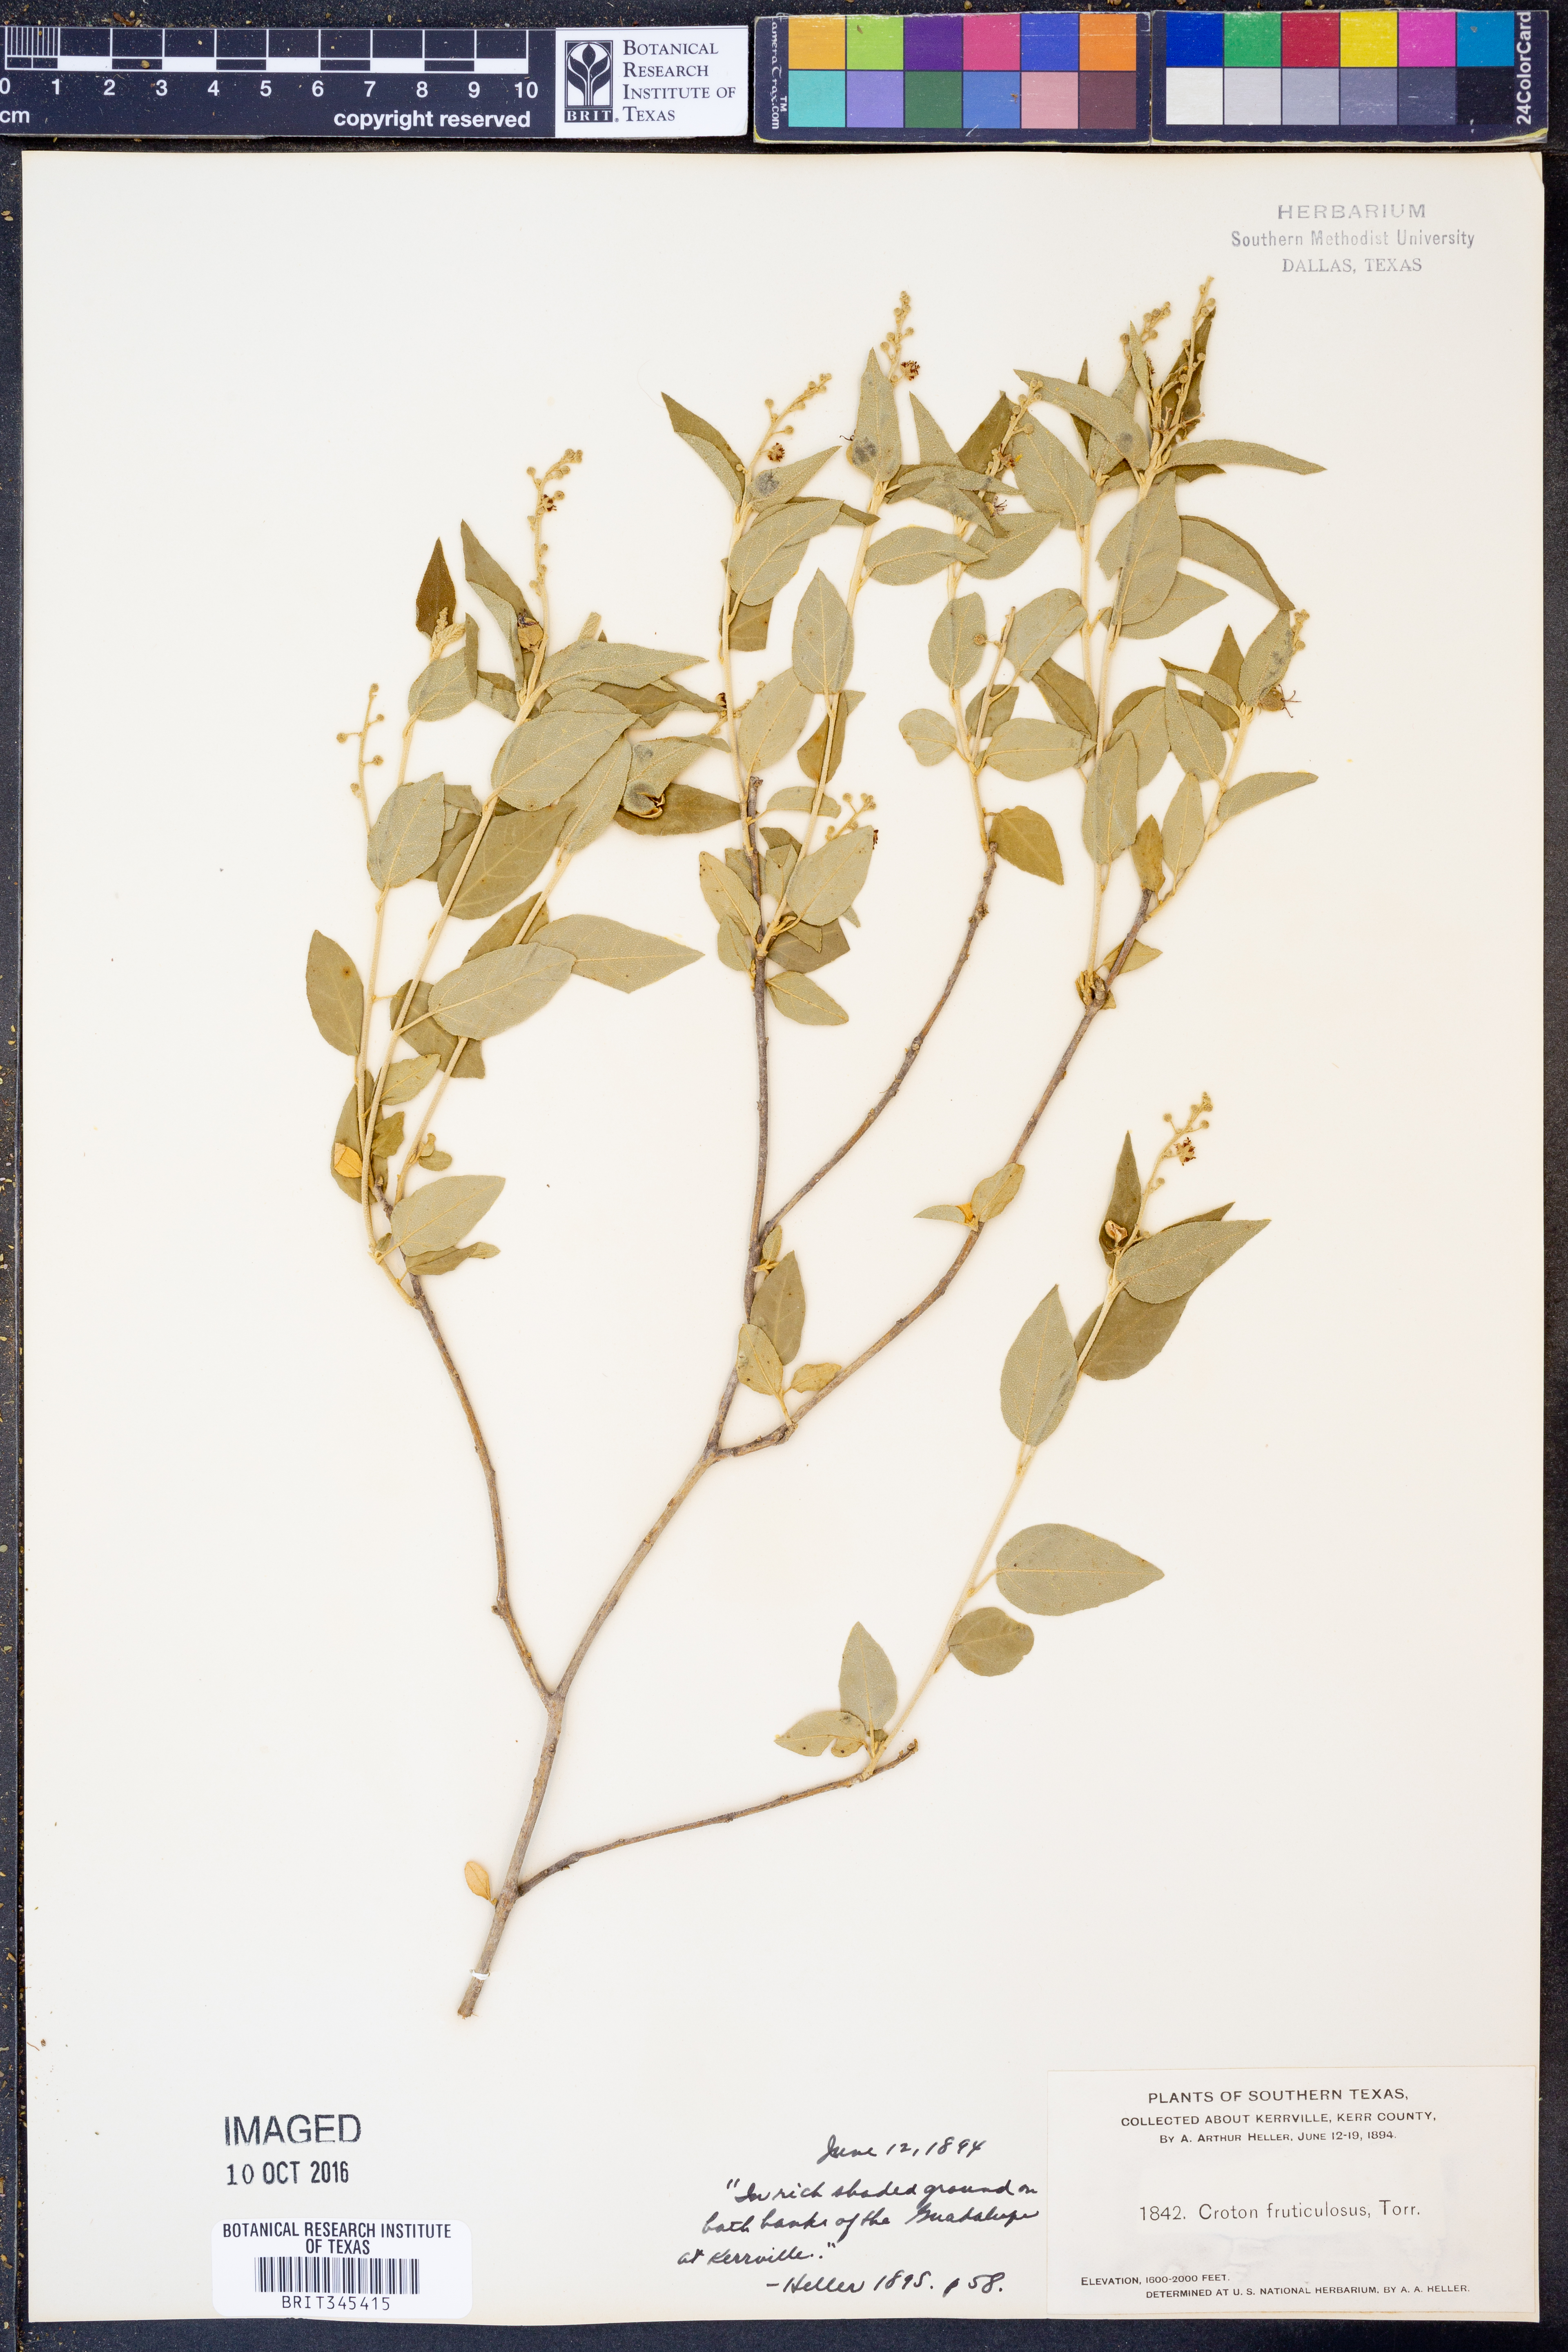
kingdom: Plantae
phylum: Tracheophyta
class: Magnoliopsida
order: Malpighiales
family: Euphorbiaceae
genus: Croton
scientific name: Croton fruticulosus
